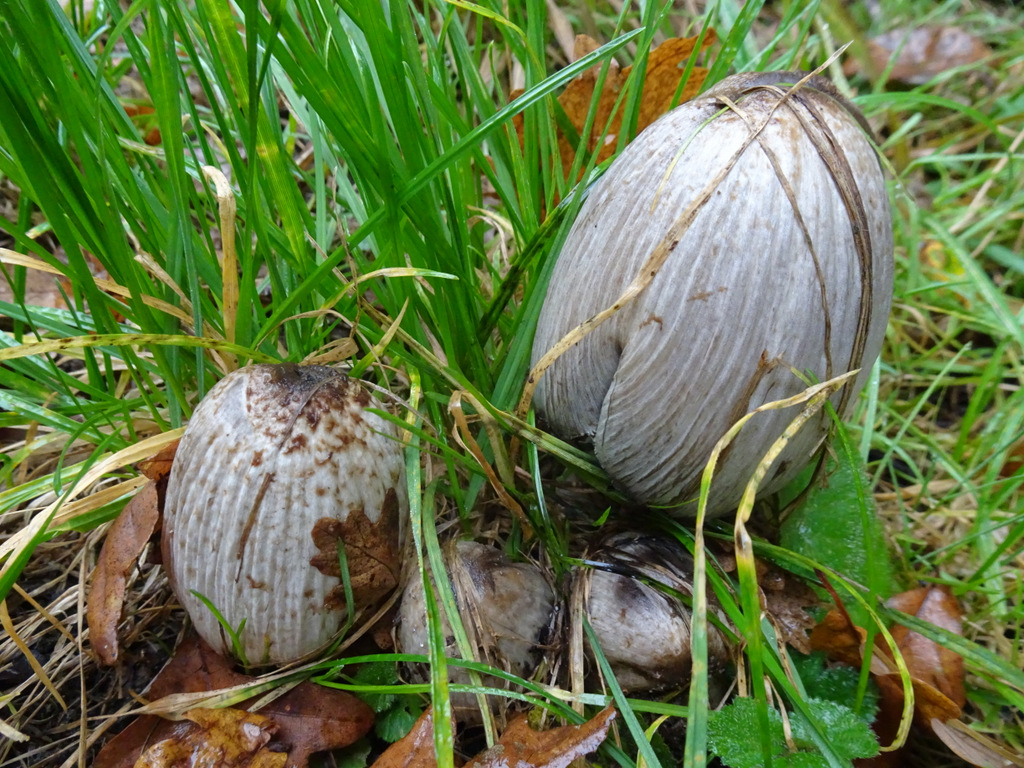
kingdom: Fungi
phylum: Basidiomycota
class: Agaricomycetes
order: Agaricales
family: Psathyrellaceae
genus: Coprinopsis
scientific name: Coprinopsis atramentaria
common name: almindelig blækhat
